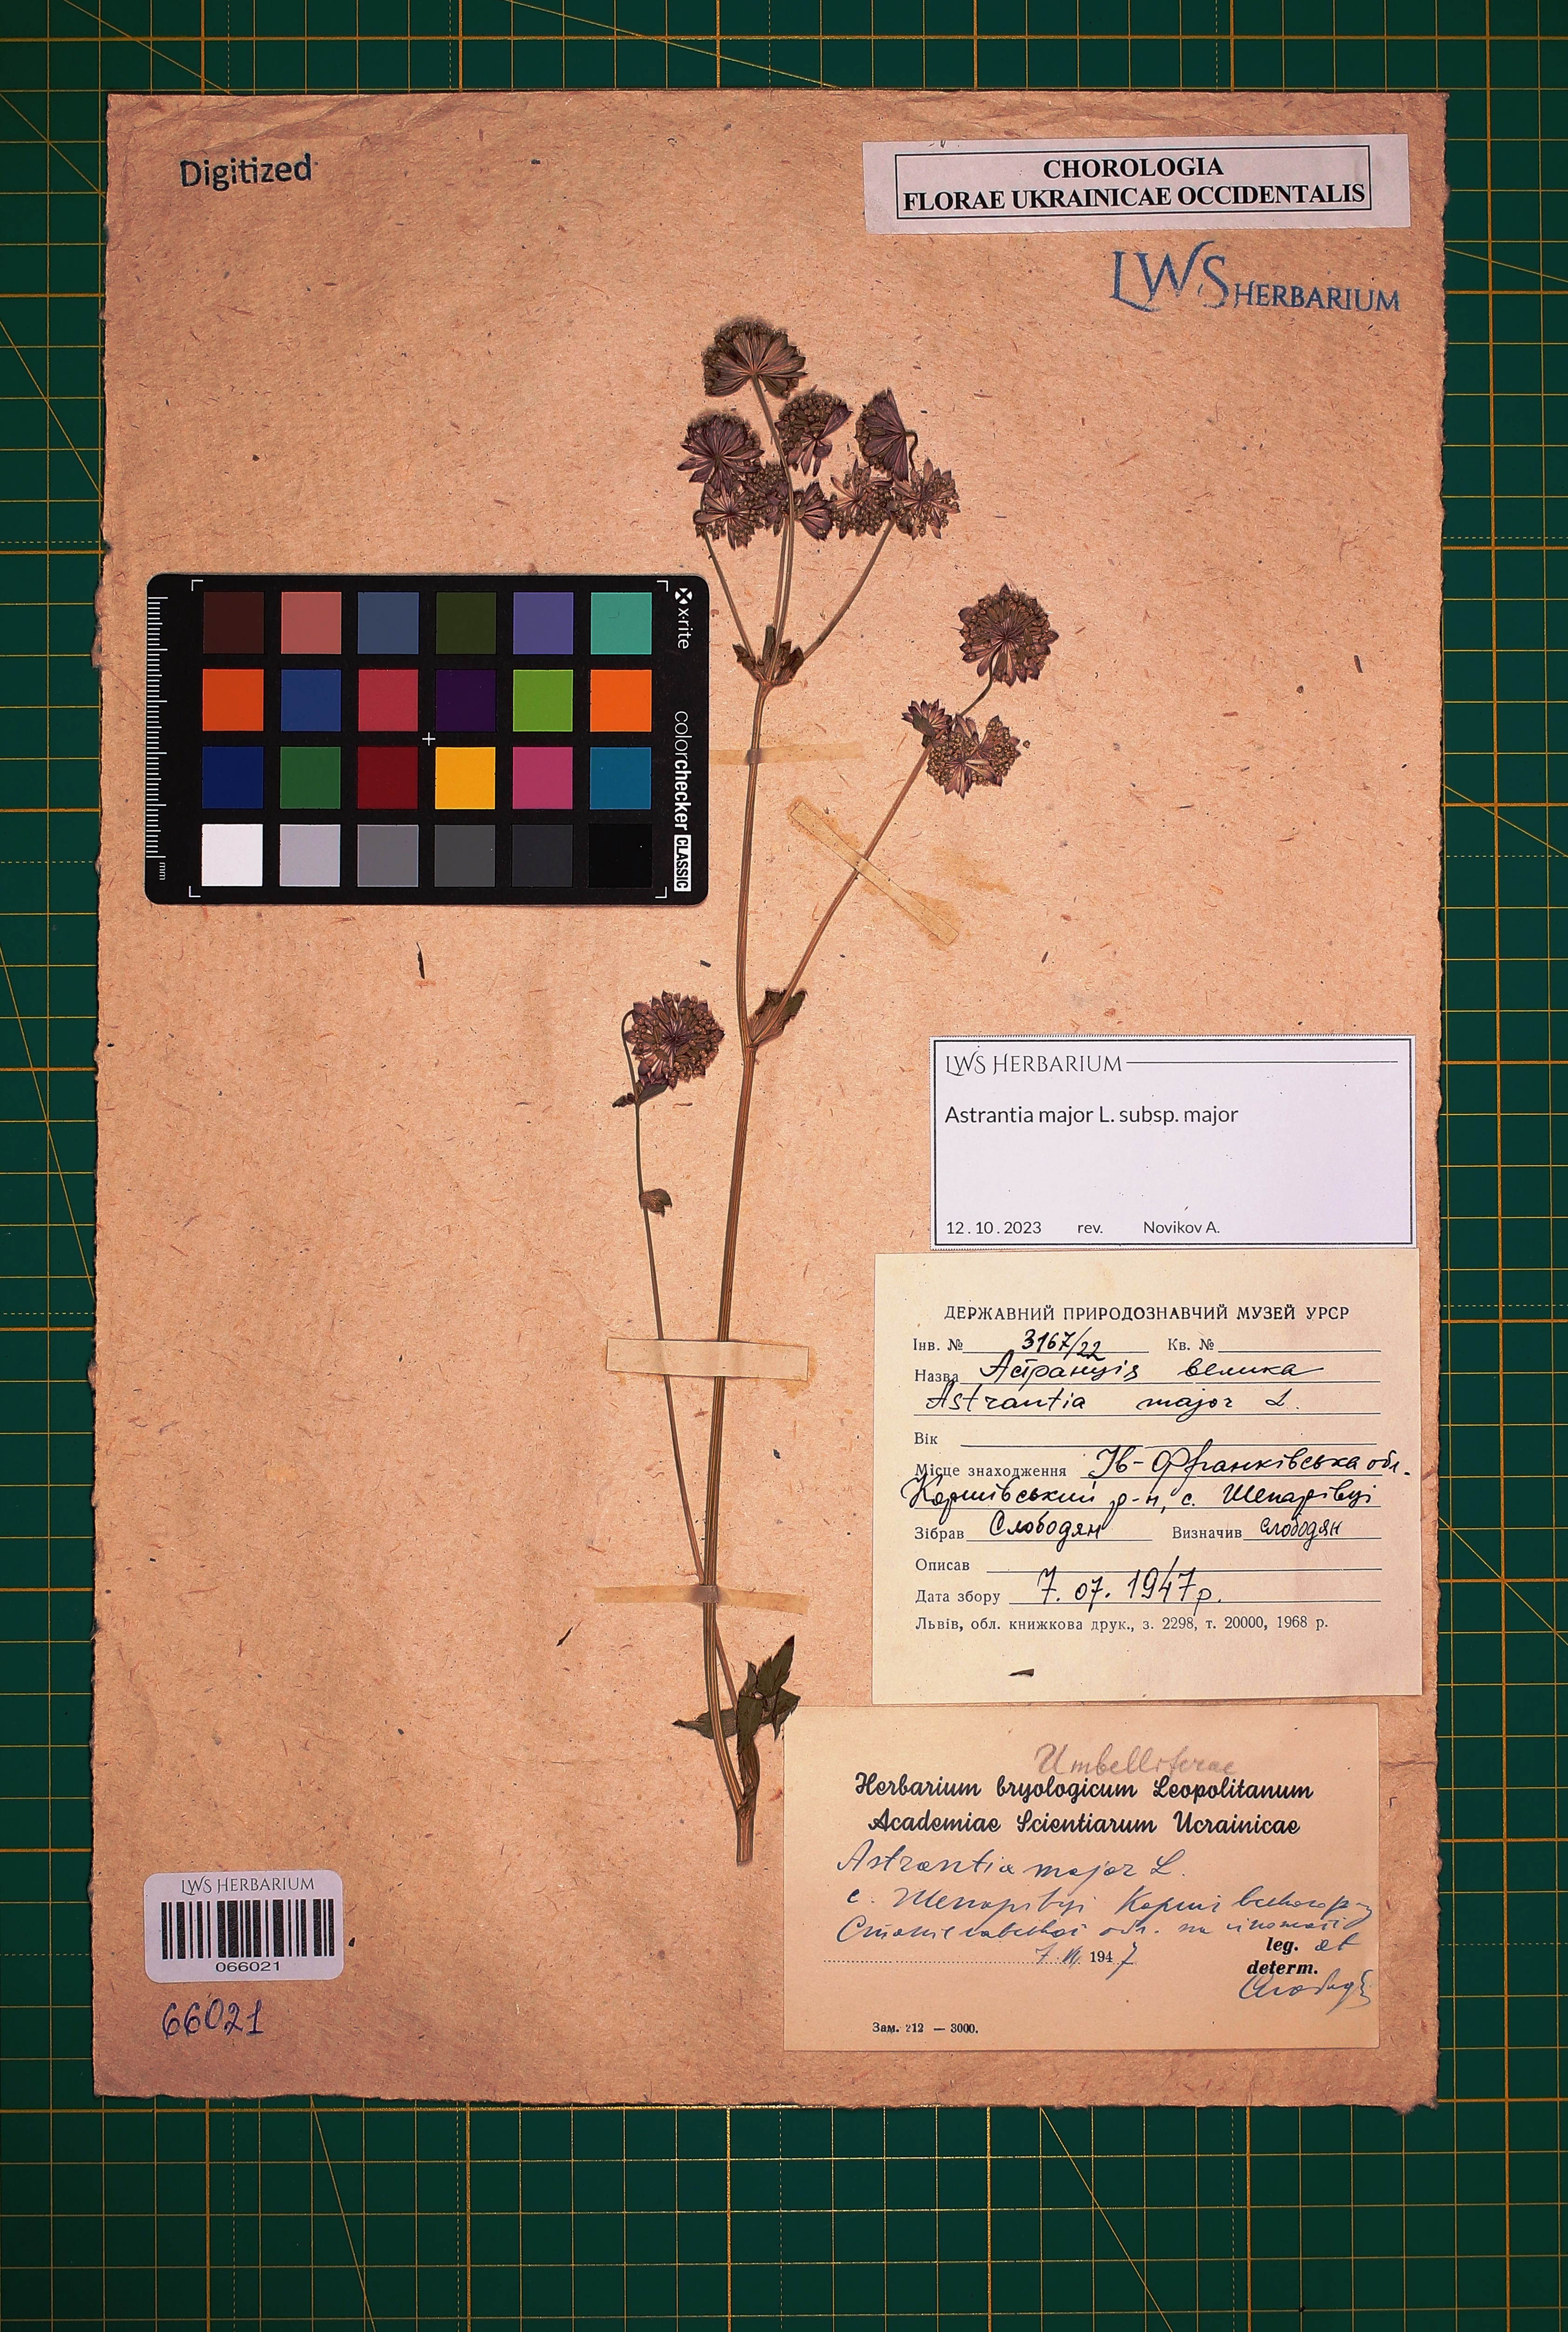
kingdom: Plantae
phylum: Tracheophyta
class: Magnoliopsida
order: Apiales
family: Apiaceae
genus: Astrantia
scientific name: Astrantia major
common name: Greater masterwort
